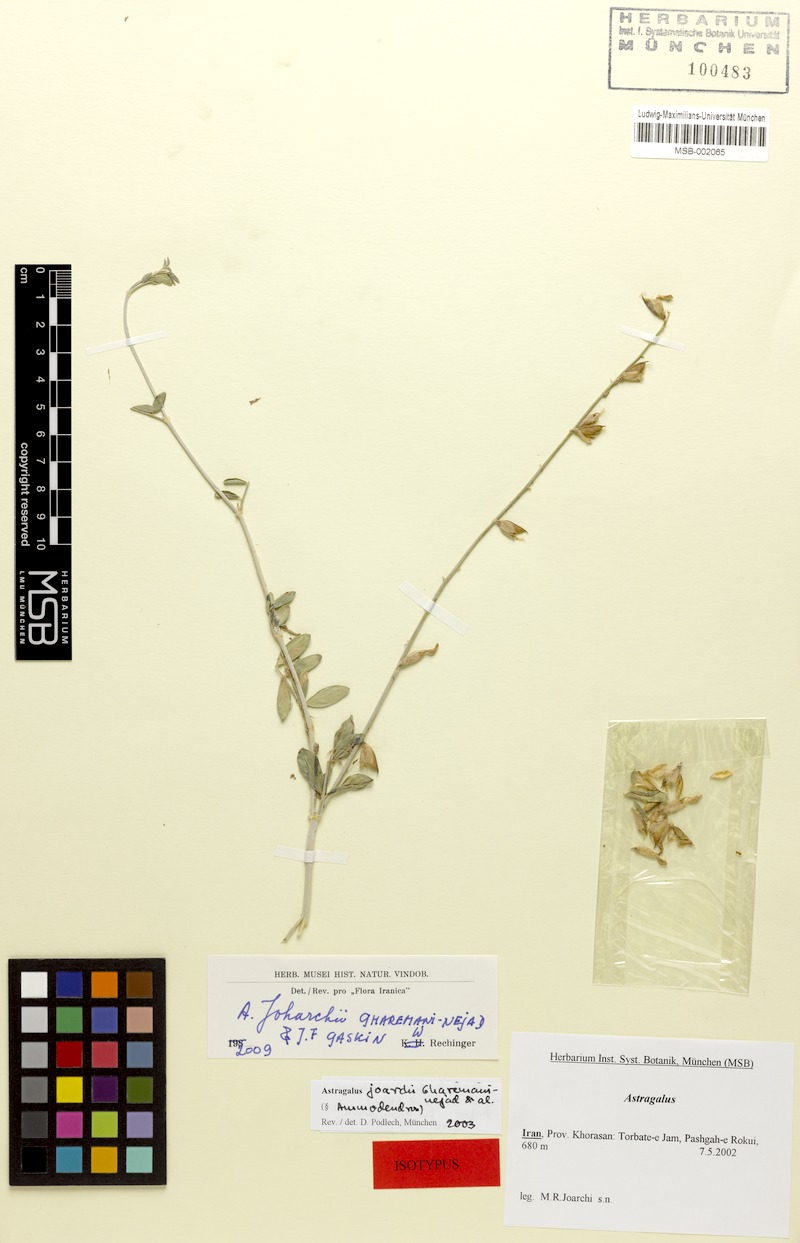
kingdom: Plantae
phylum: Tracheophyta
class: Magnoliopsida
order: Fabales
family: Fabaceae
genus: Astragalus
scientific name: Astragalus joharchii
